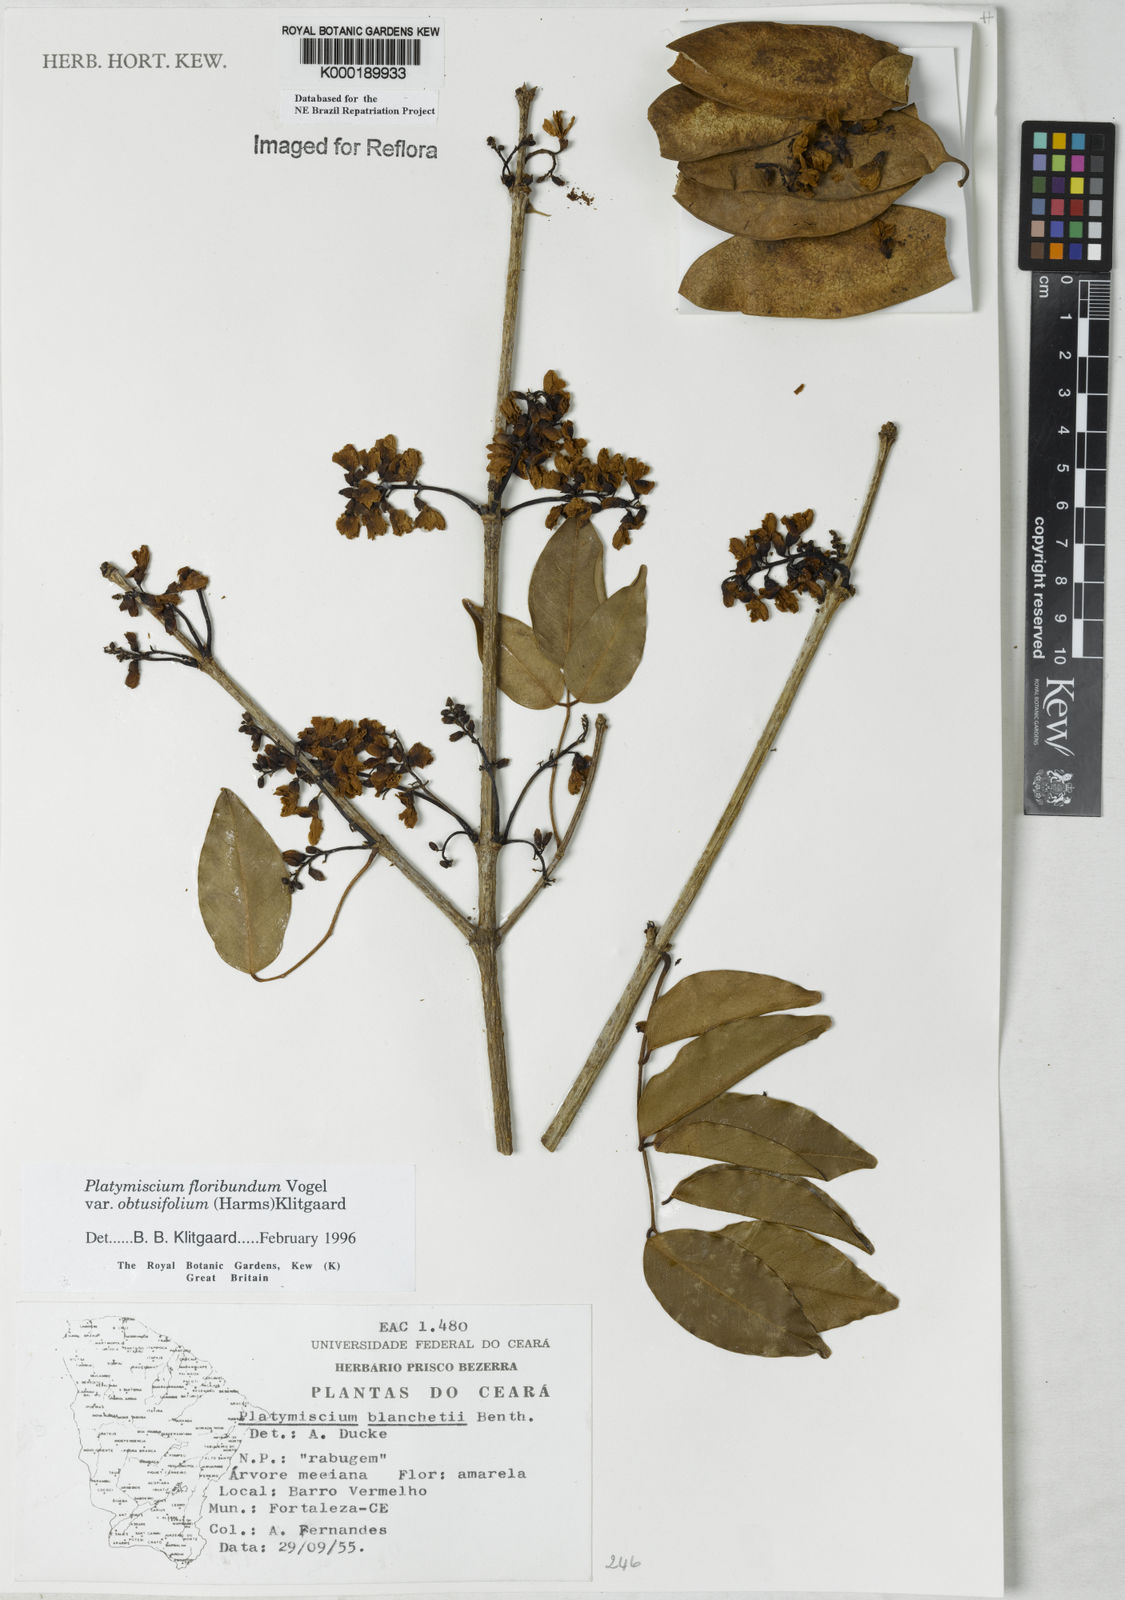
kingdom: Plantae
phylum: Tracheophyta
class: Magnoliopsida
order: Fabales
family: Fabaceae
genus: Platymiscium
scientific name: Platymiscium floribundum
